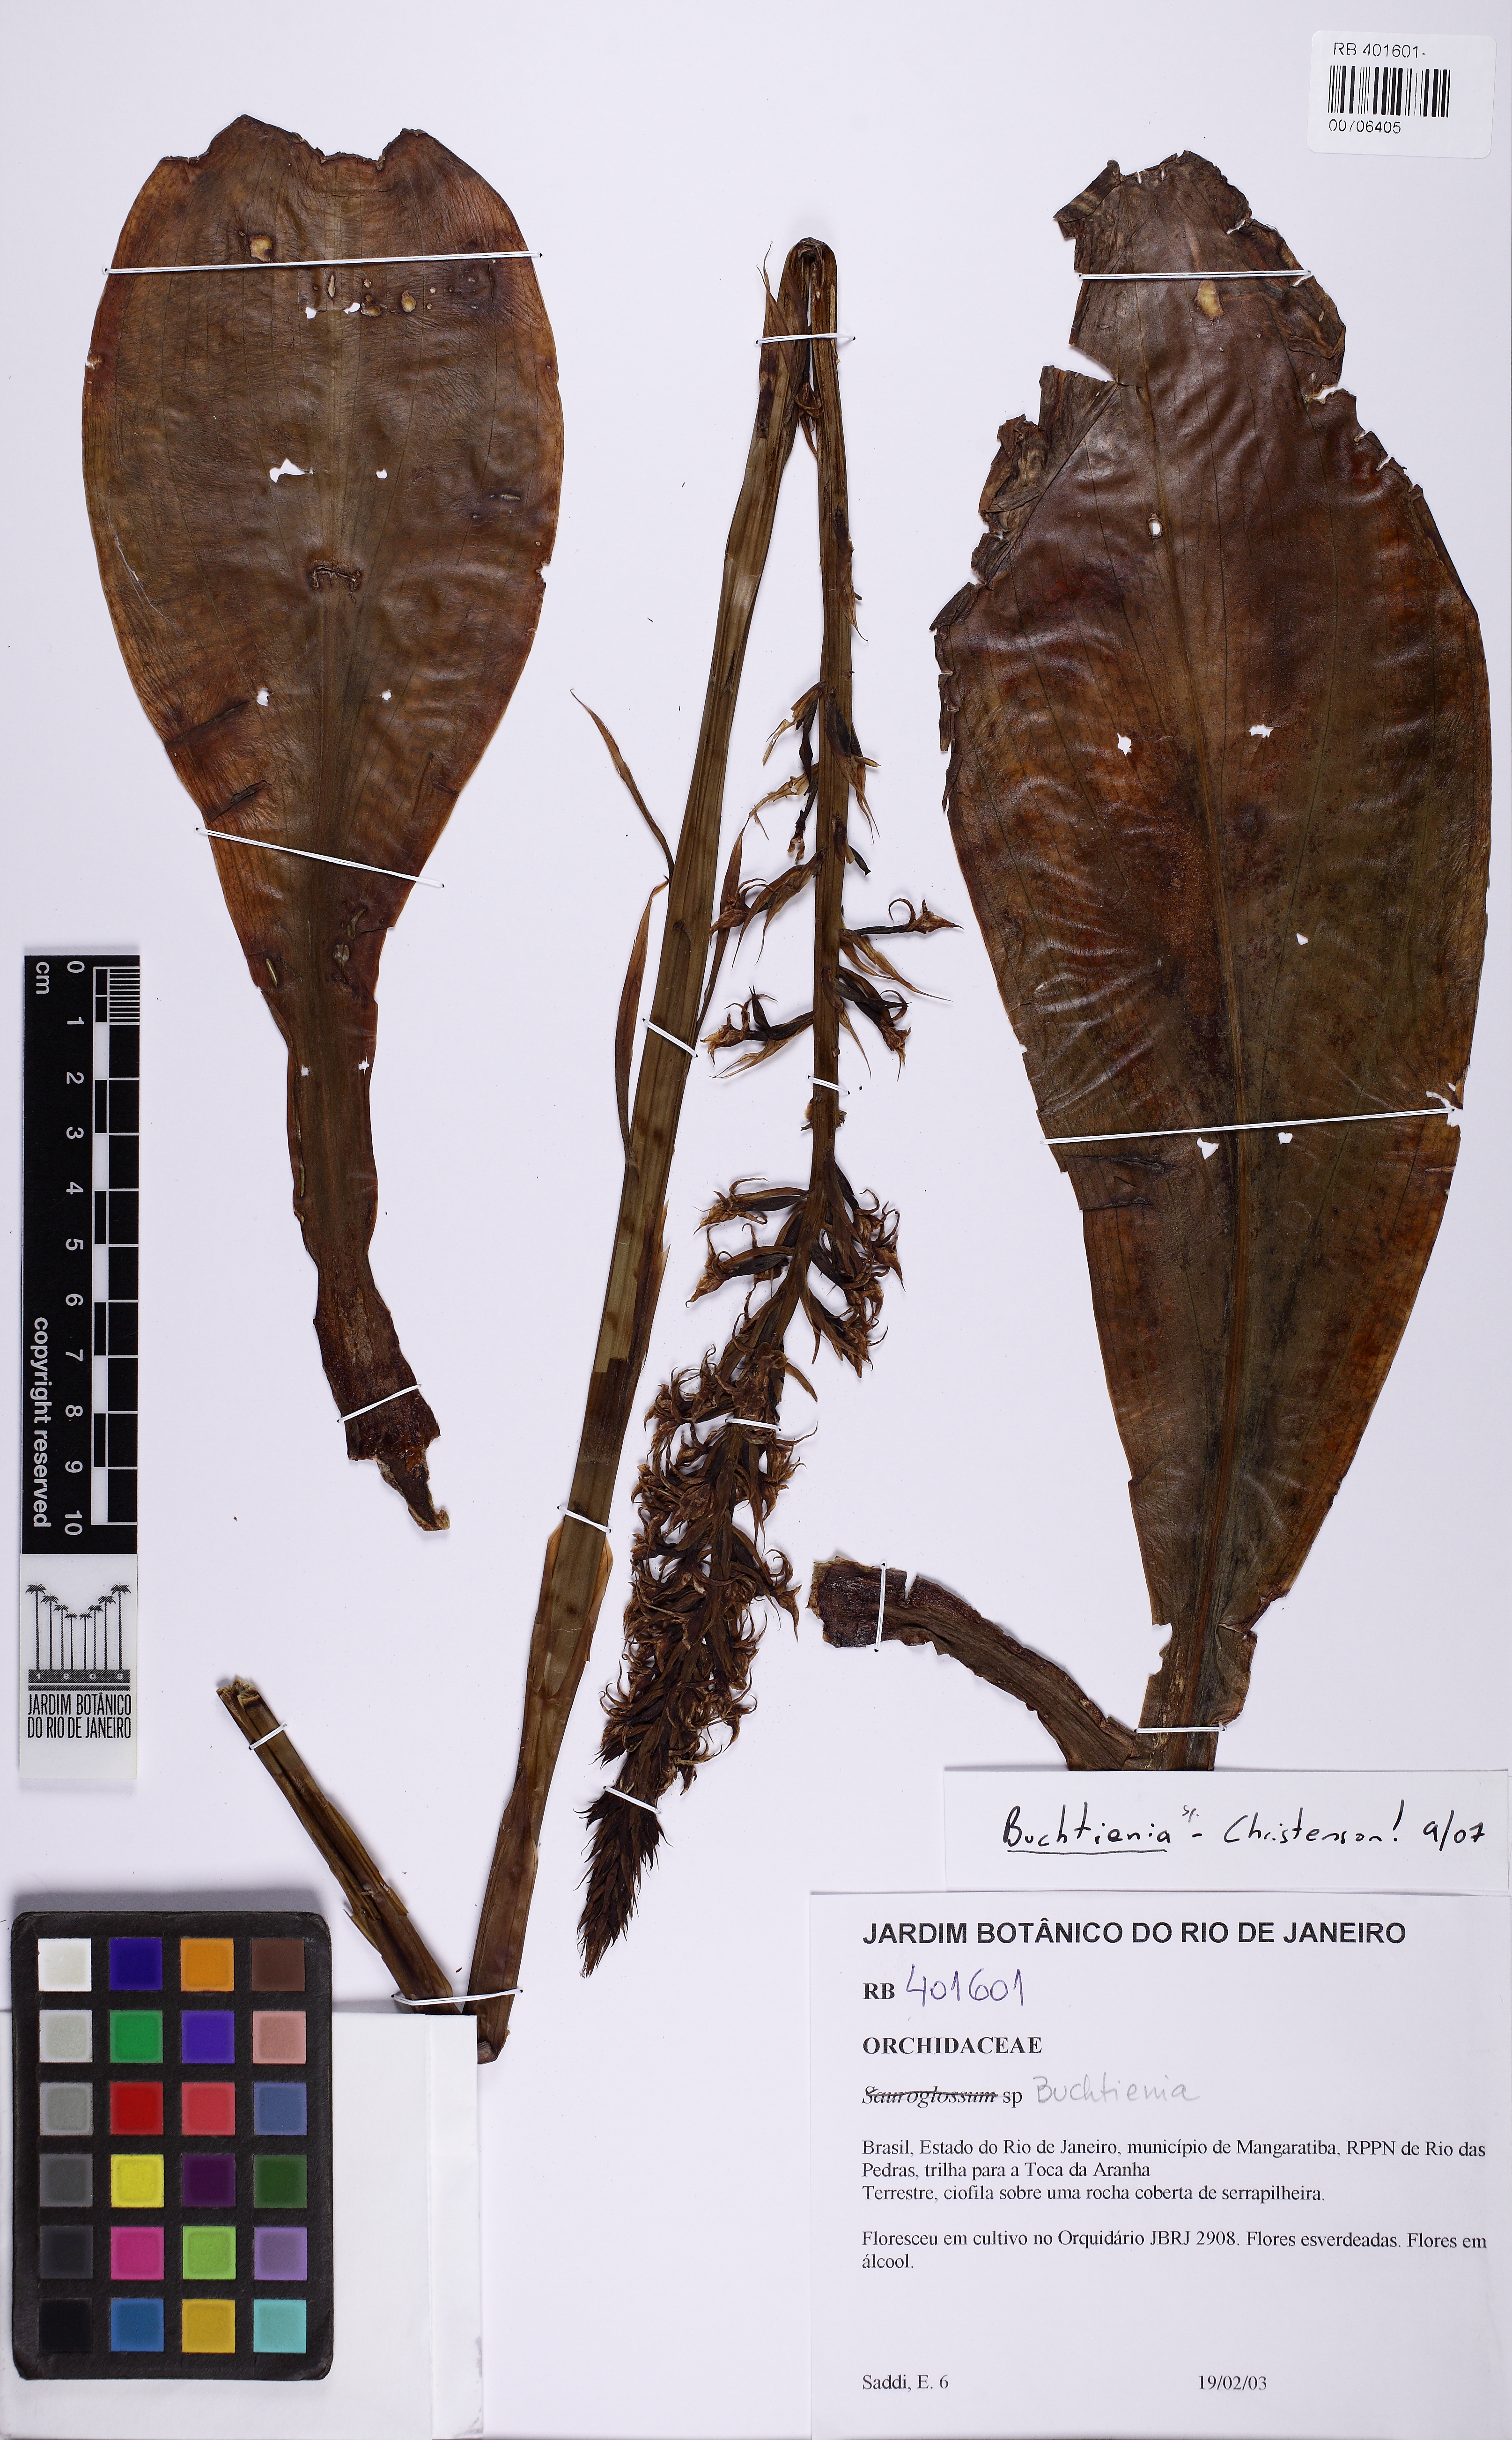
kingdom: Plantae
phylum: Tracheophyta
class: Liliopsida
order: Asparagales
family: Orchidaceae
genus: Buchtienia
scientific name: Buchtienia nitida
